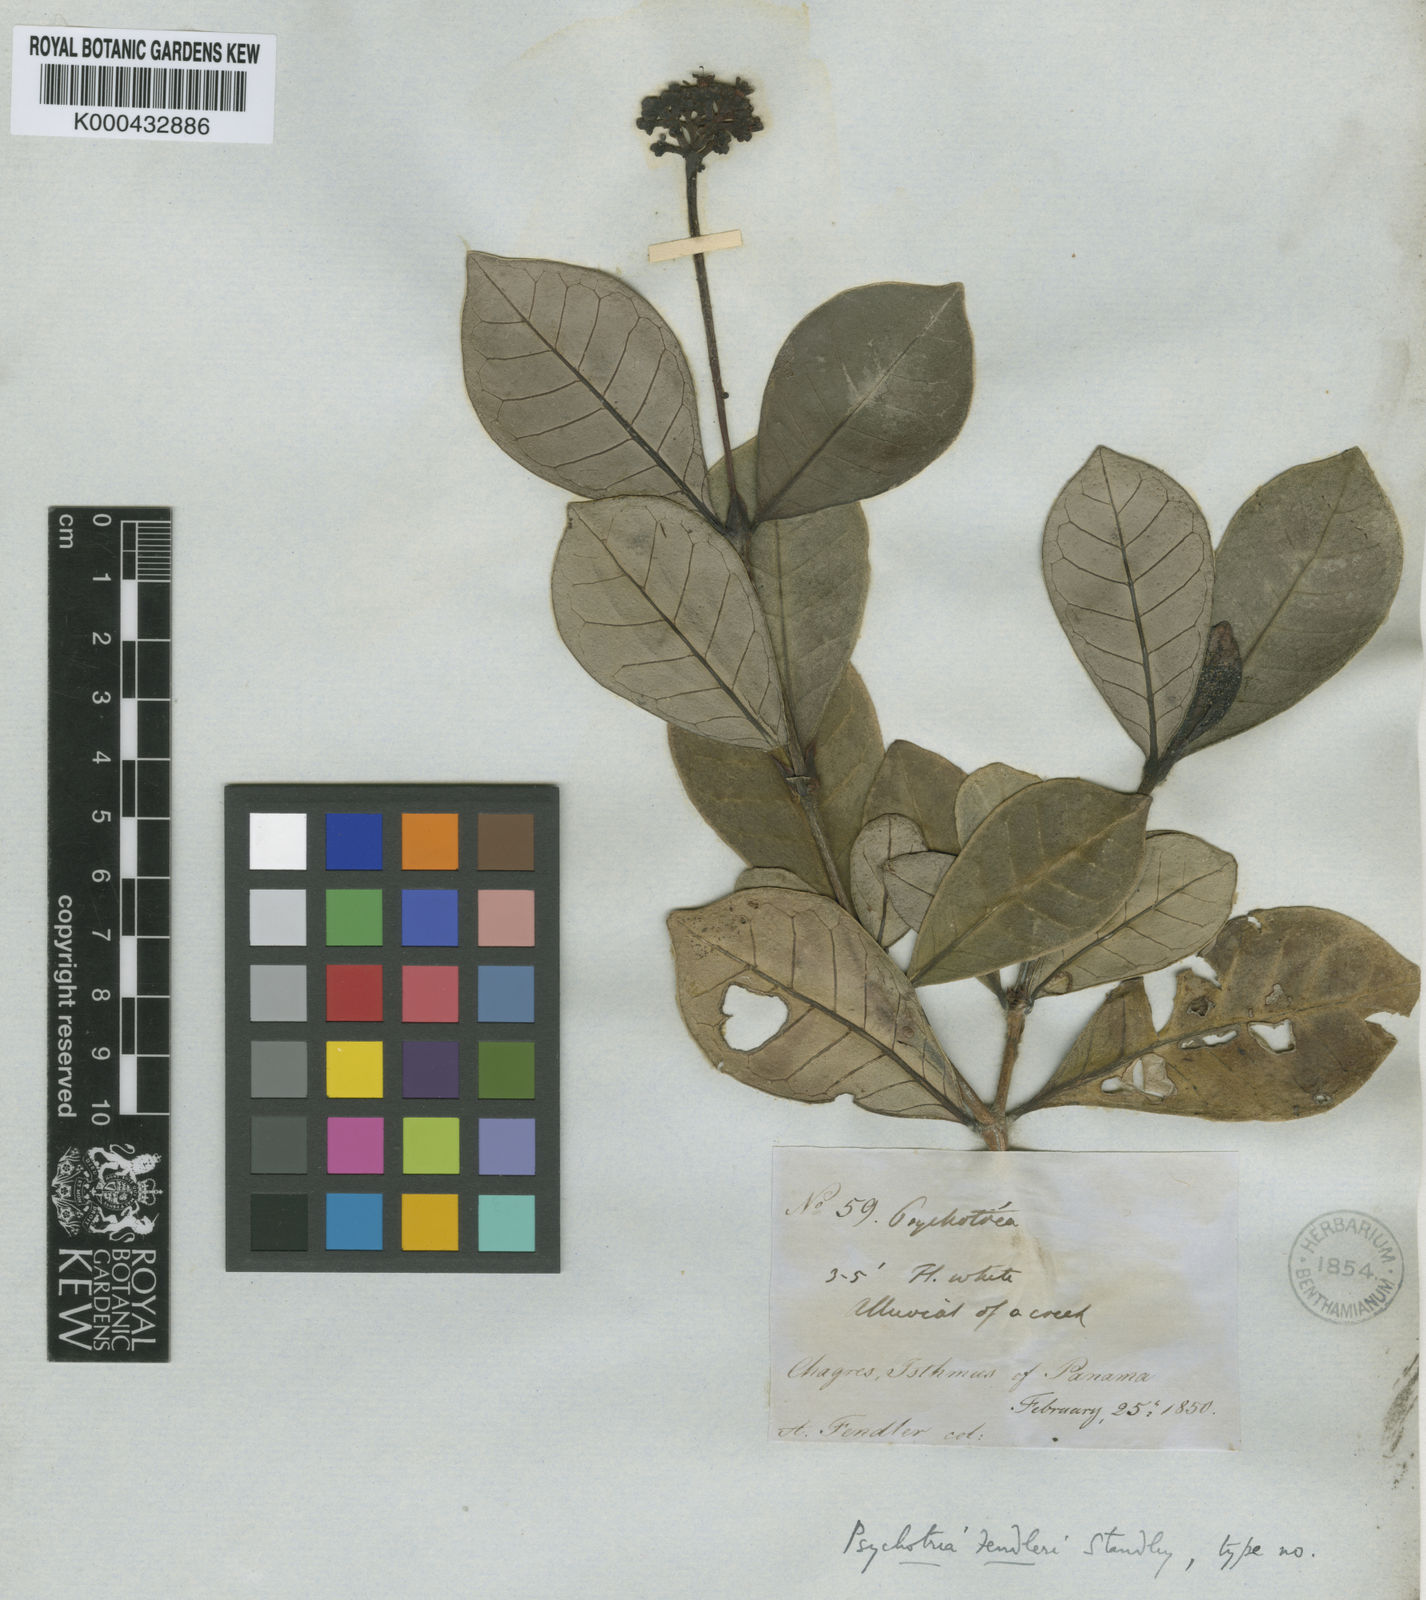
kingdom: Plantae
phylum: Tracheophyta
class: Magnoliopsida
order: Gentianales
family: Rubiaceae
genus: Psychotria
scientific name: Psychotria fendleri
